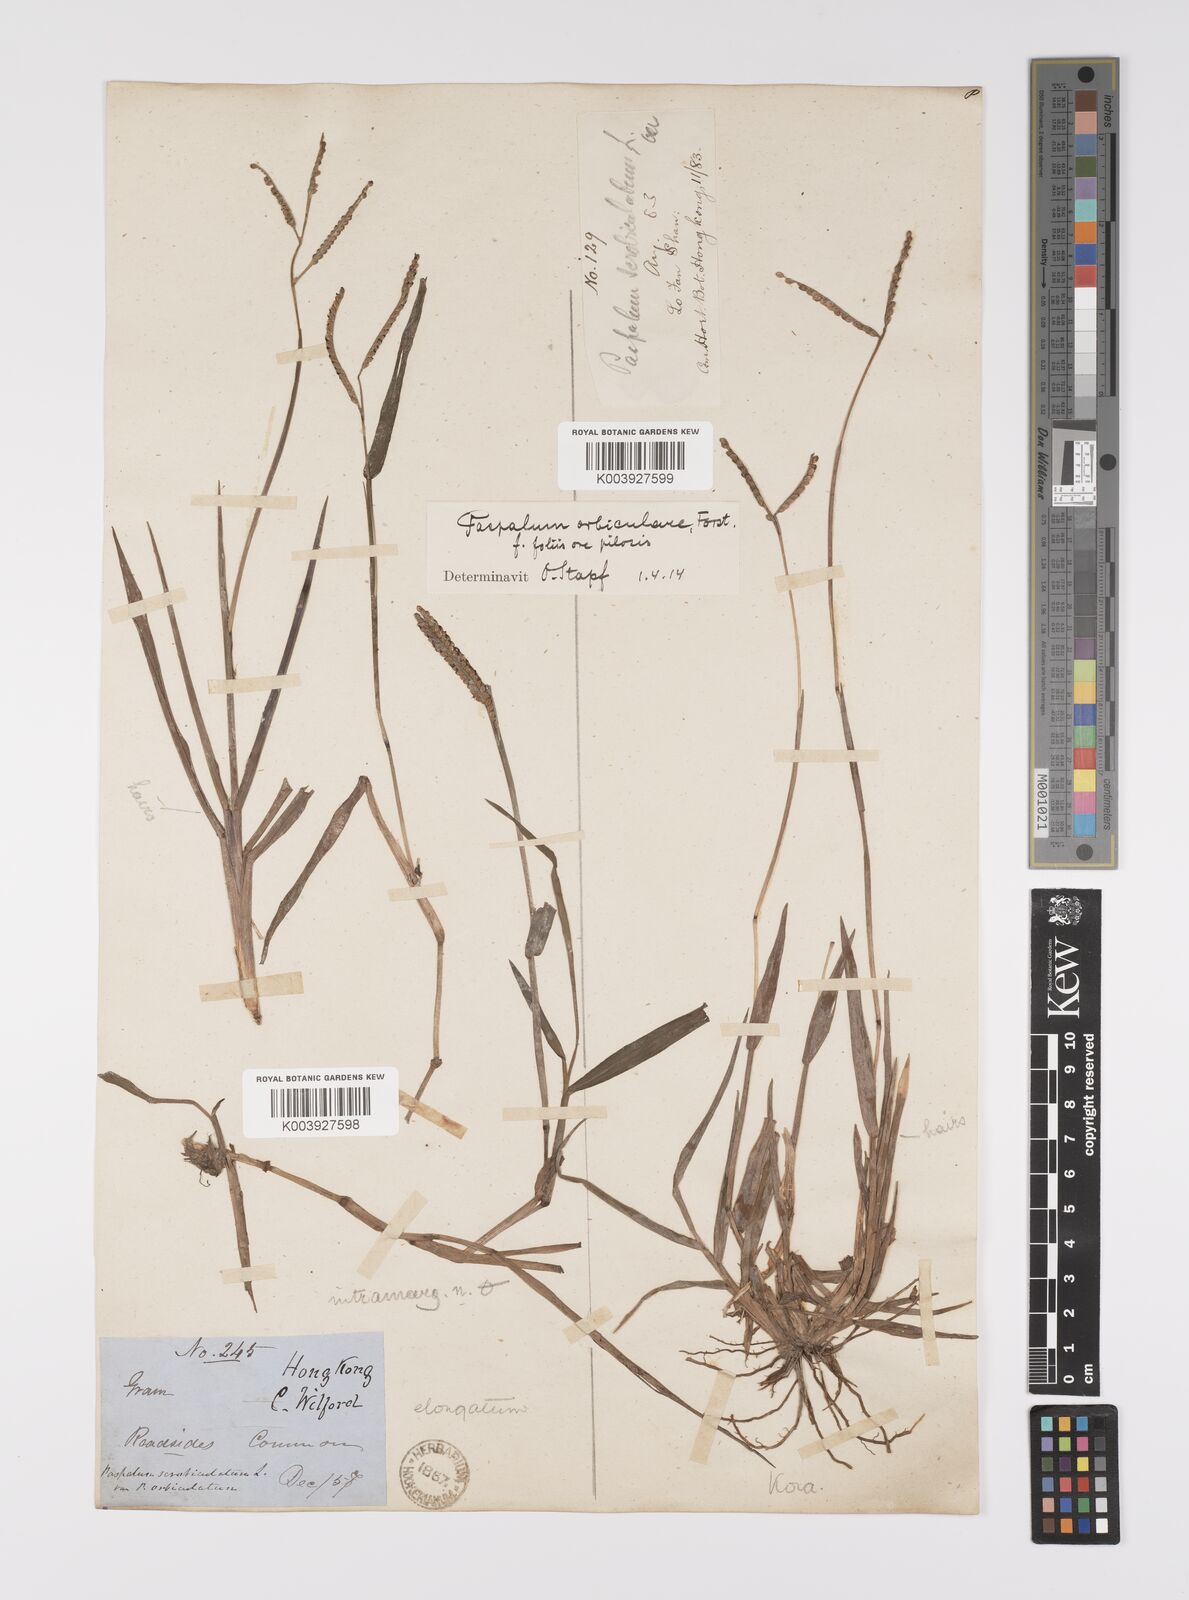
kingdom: Plantae
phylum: Tracheophyta
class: Liliopsida
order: Poales
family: Poaceae
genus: Paspalum
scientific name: Paspalum scrobiculatum
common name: Kodo millet
